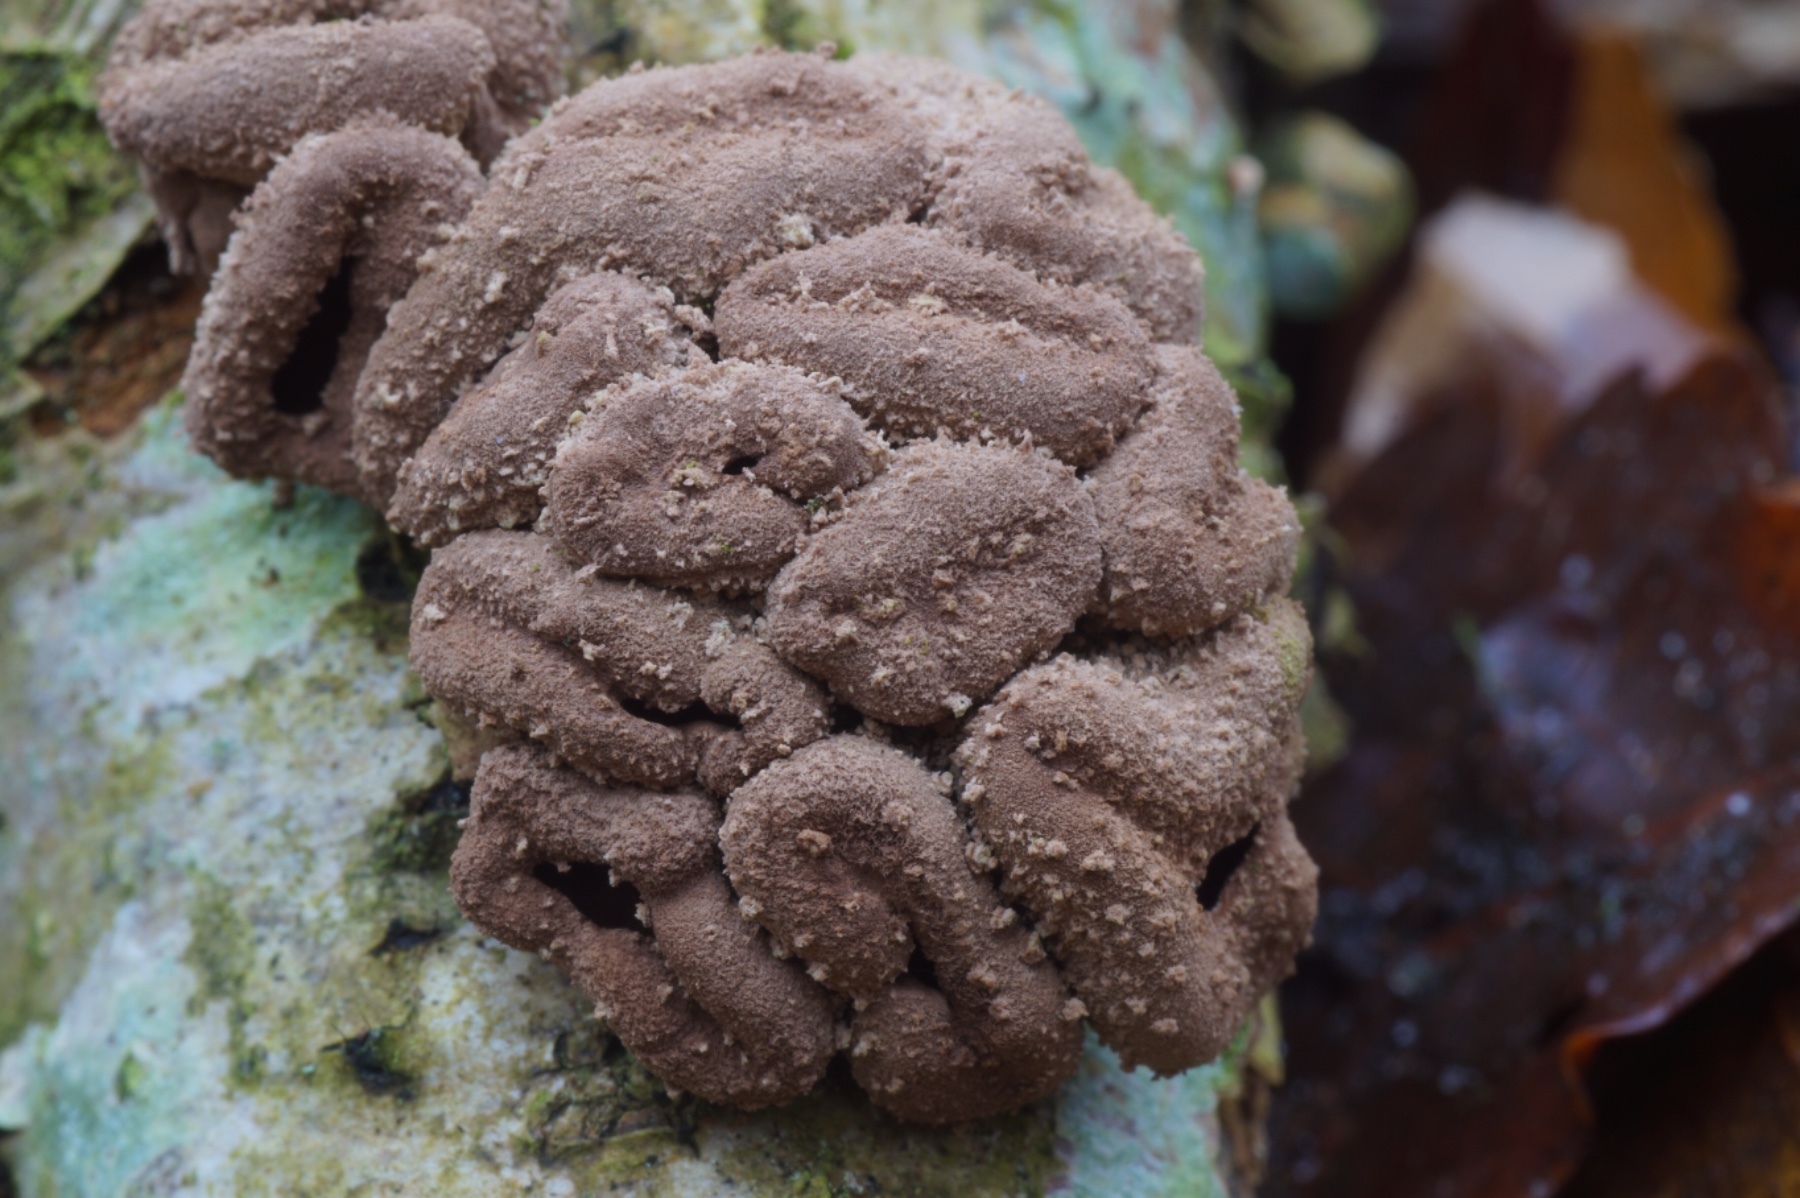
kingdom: Fungi
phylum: Ascomycota
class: Leotiomycetes
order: Helotiales
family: Cenangiaceae
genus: Encoelia
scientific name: Encoelia furfuracea
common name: hassel-læderskive
